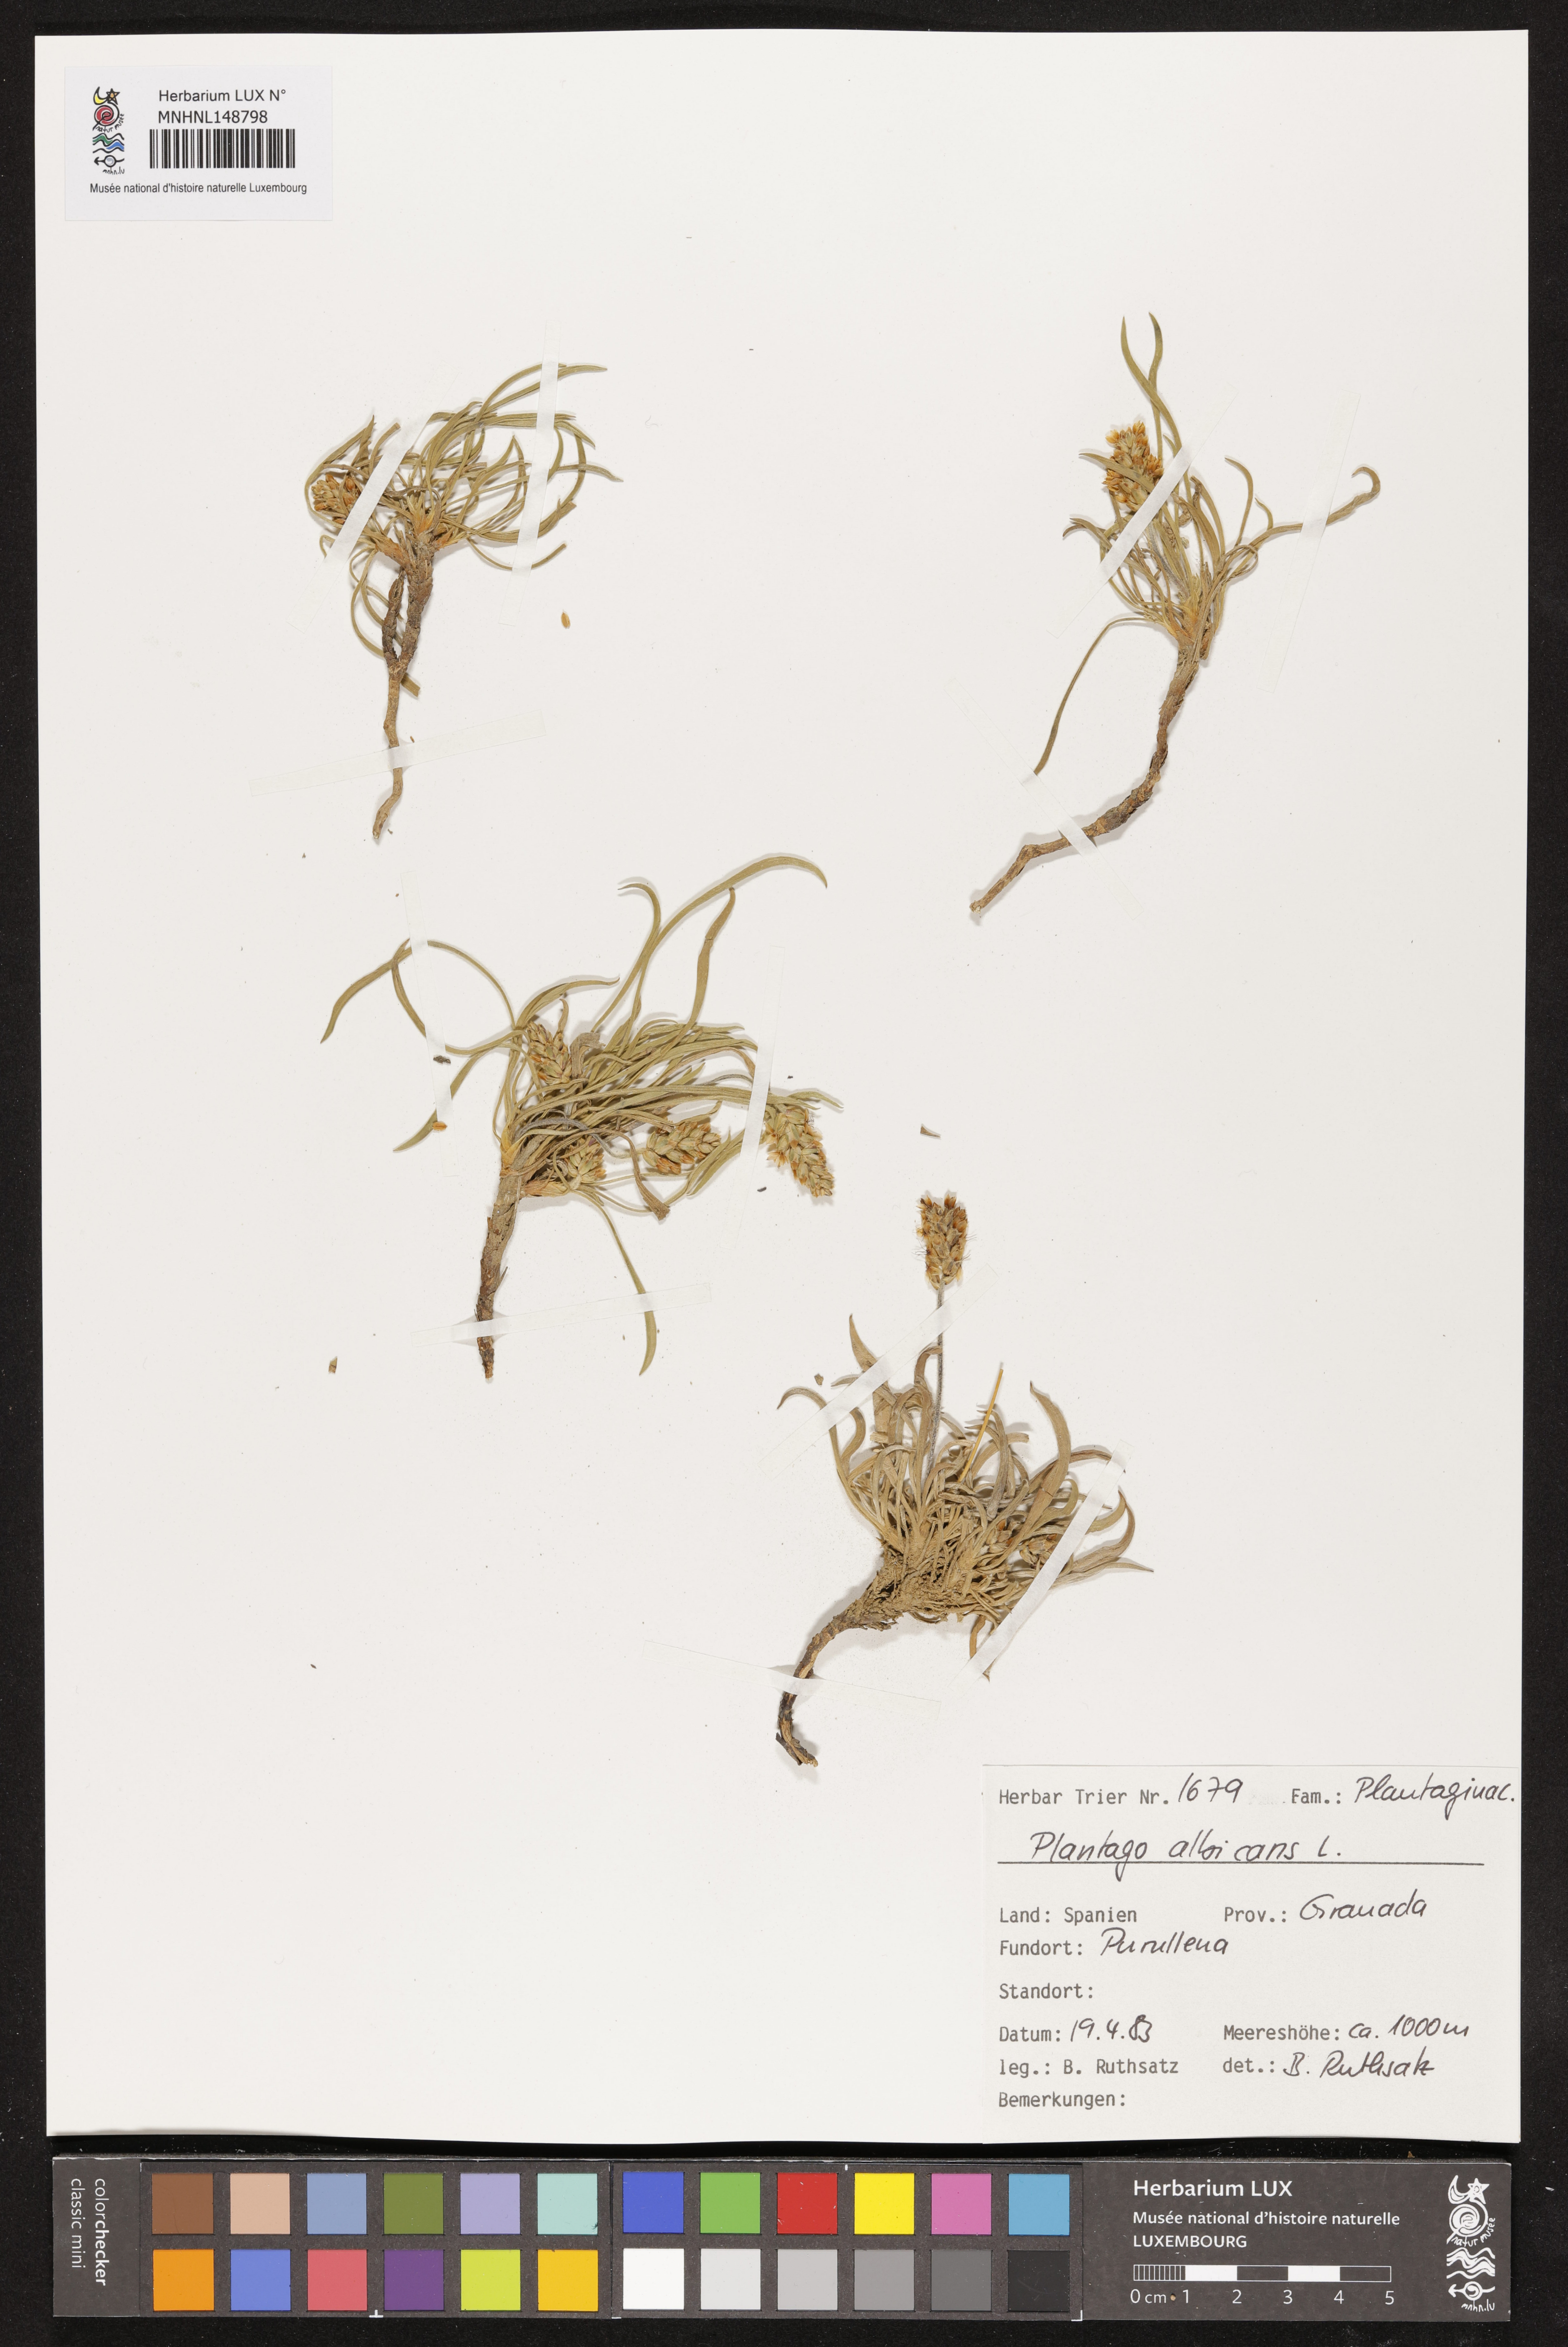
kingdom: Plantae
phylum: Tracheophyta
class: Magnoliopsida
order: Lamiales
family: Plantaginaceae
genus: Plantago
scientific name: Plantago albicans
